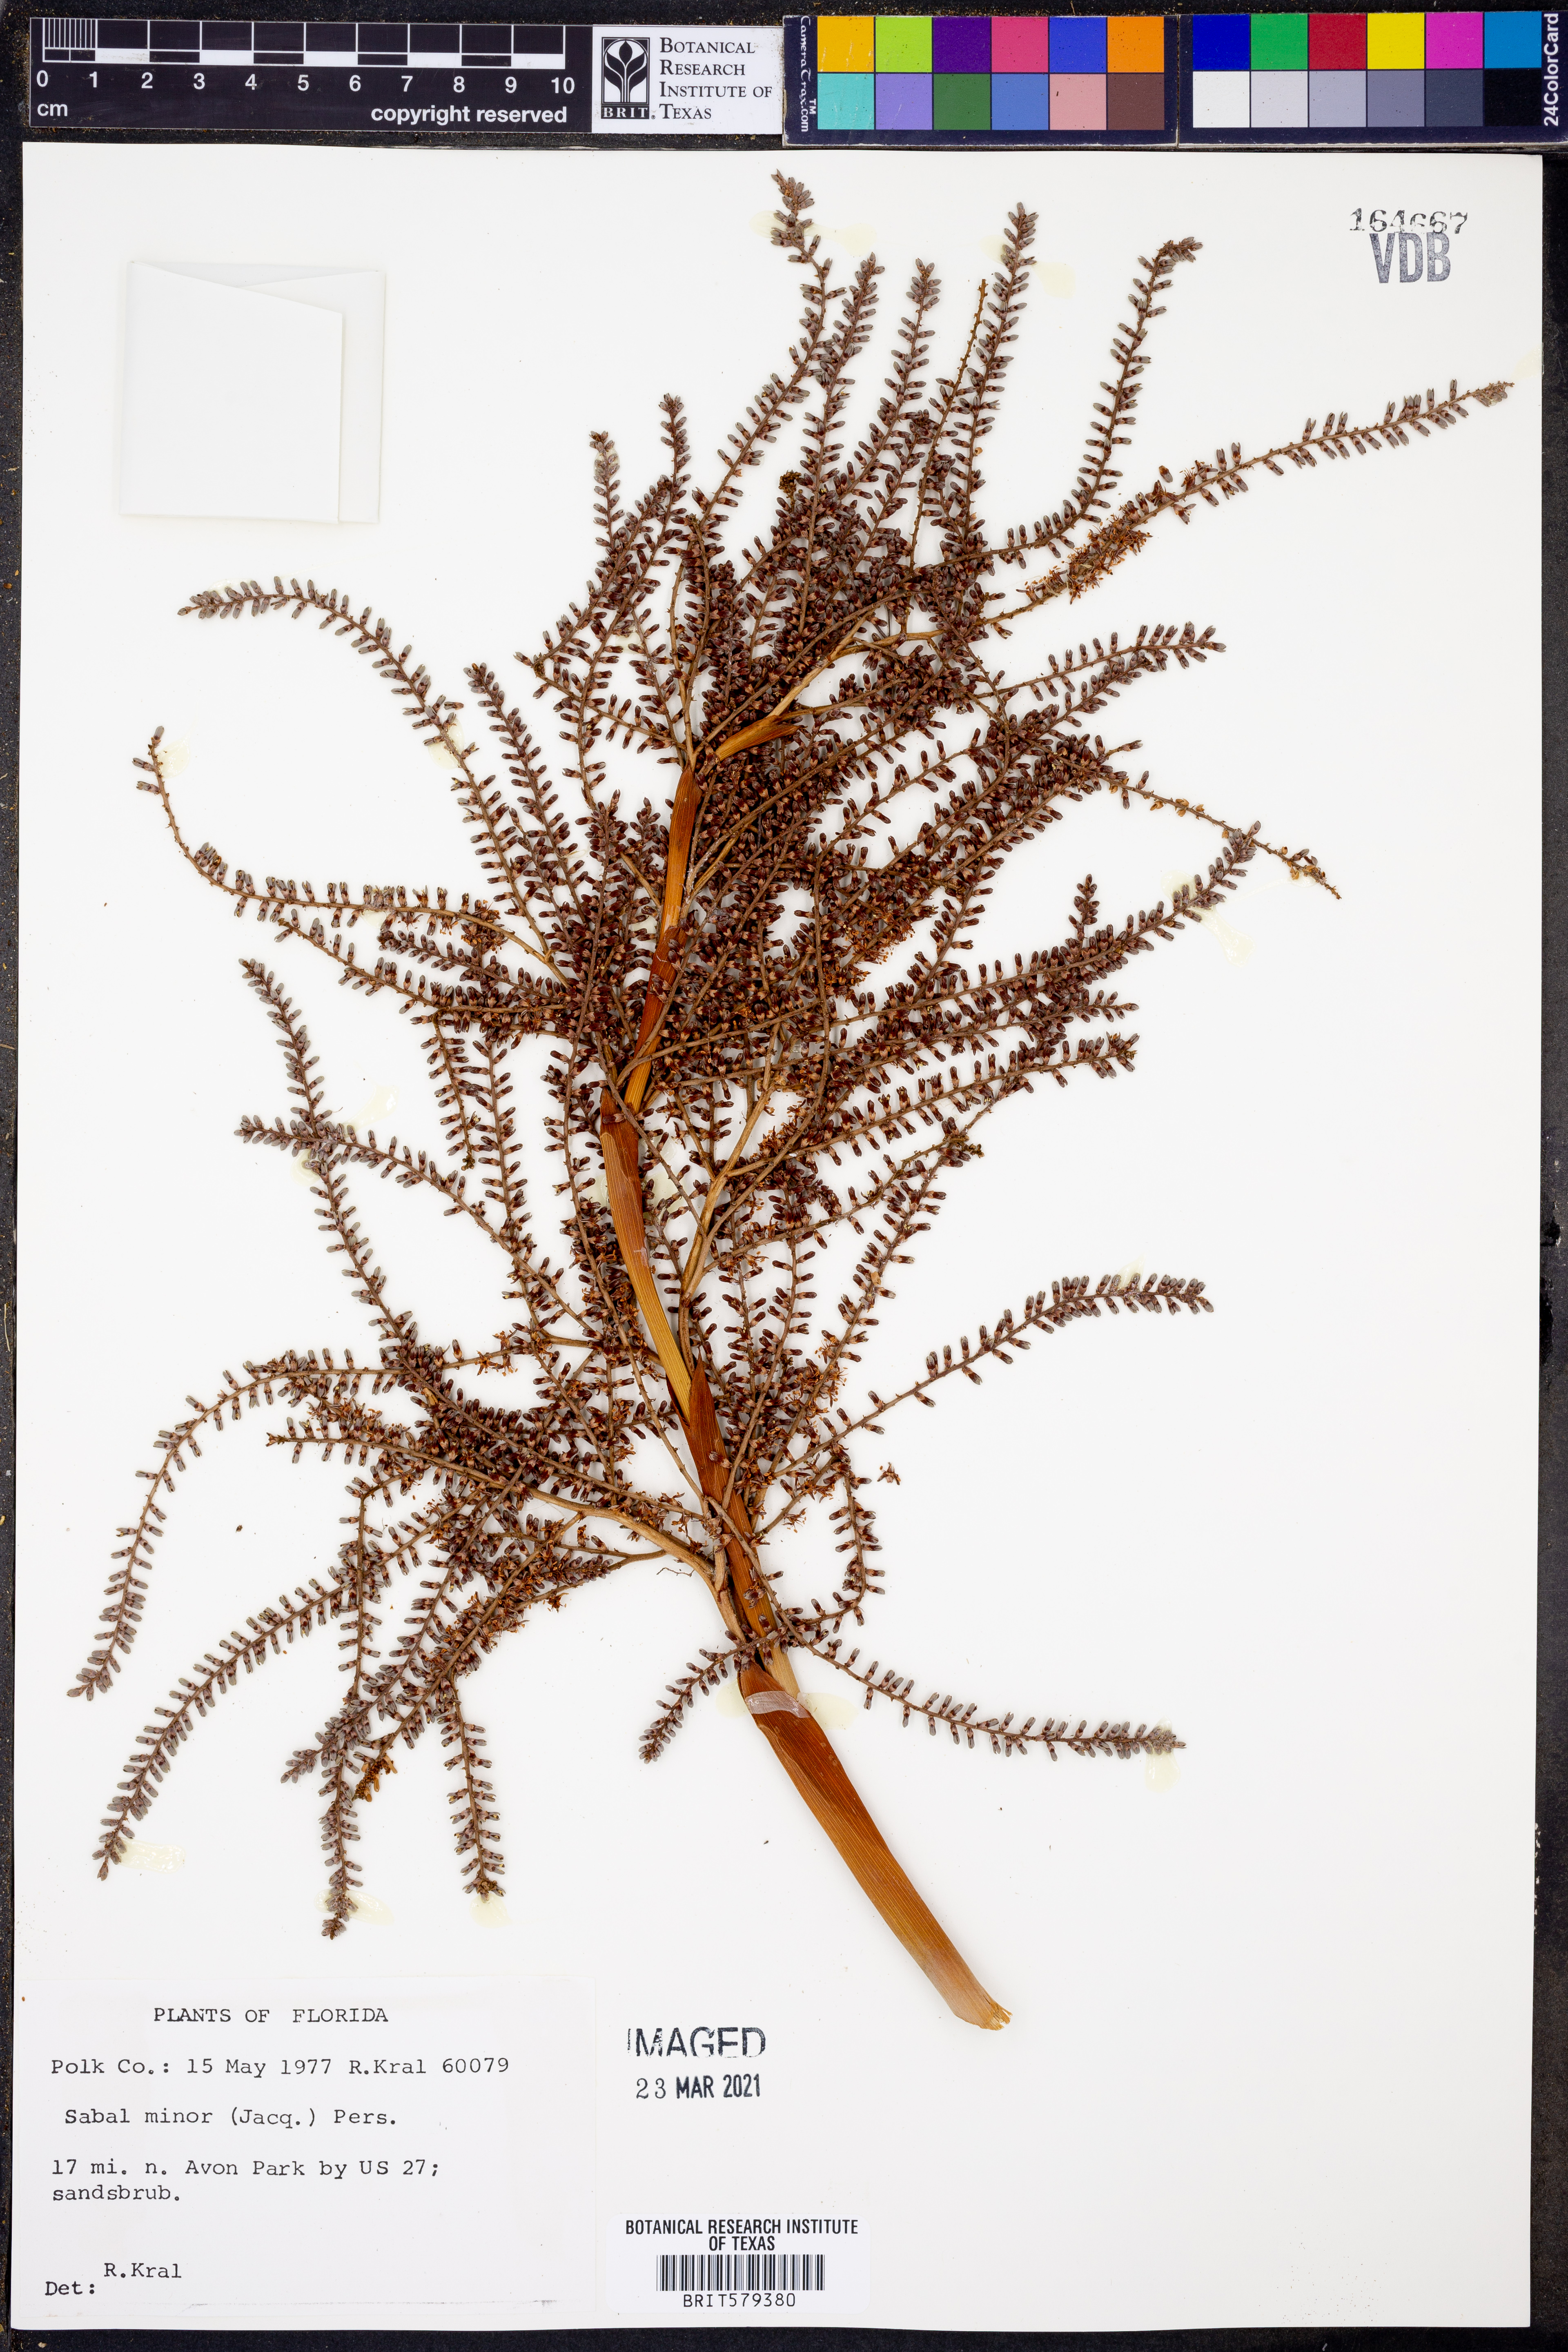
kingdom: Plantae
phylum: Tracheophyta
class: Liliopsida
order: Arecales
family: Arecaceae
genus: Sabal
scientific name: Sabal minor
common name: Dwarf palmetto
